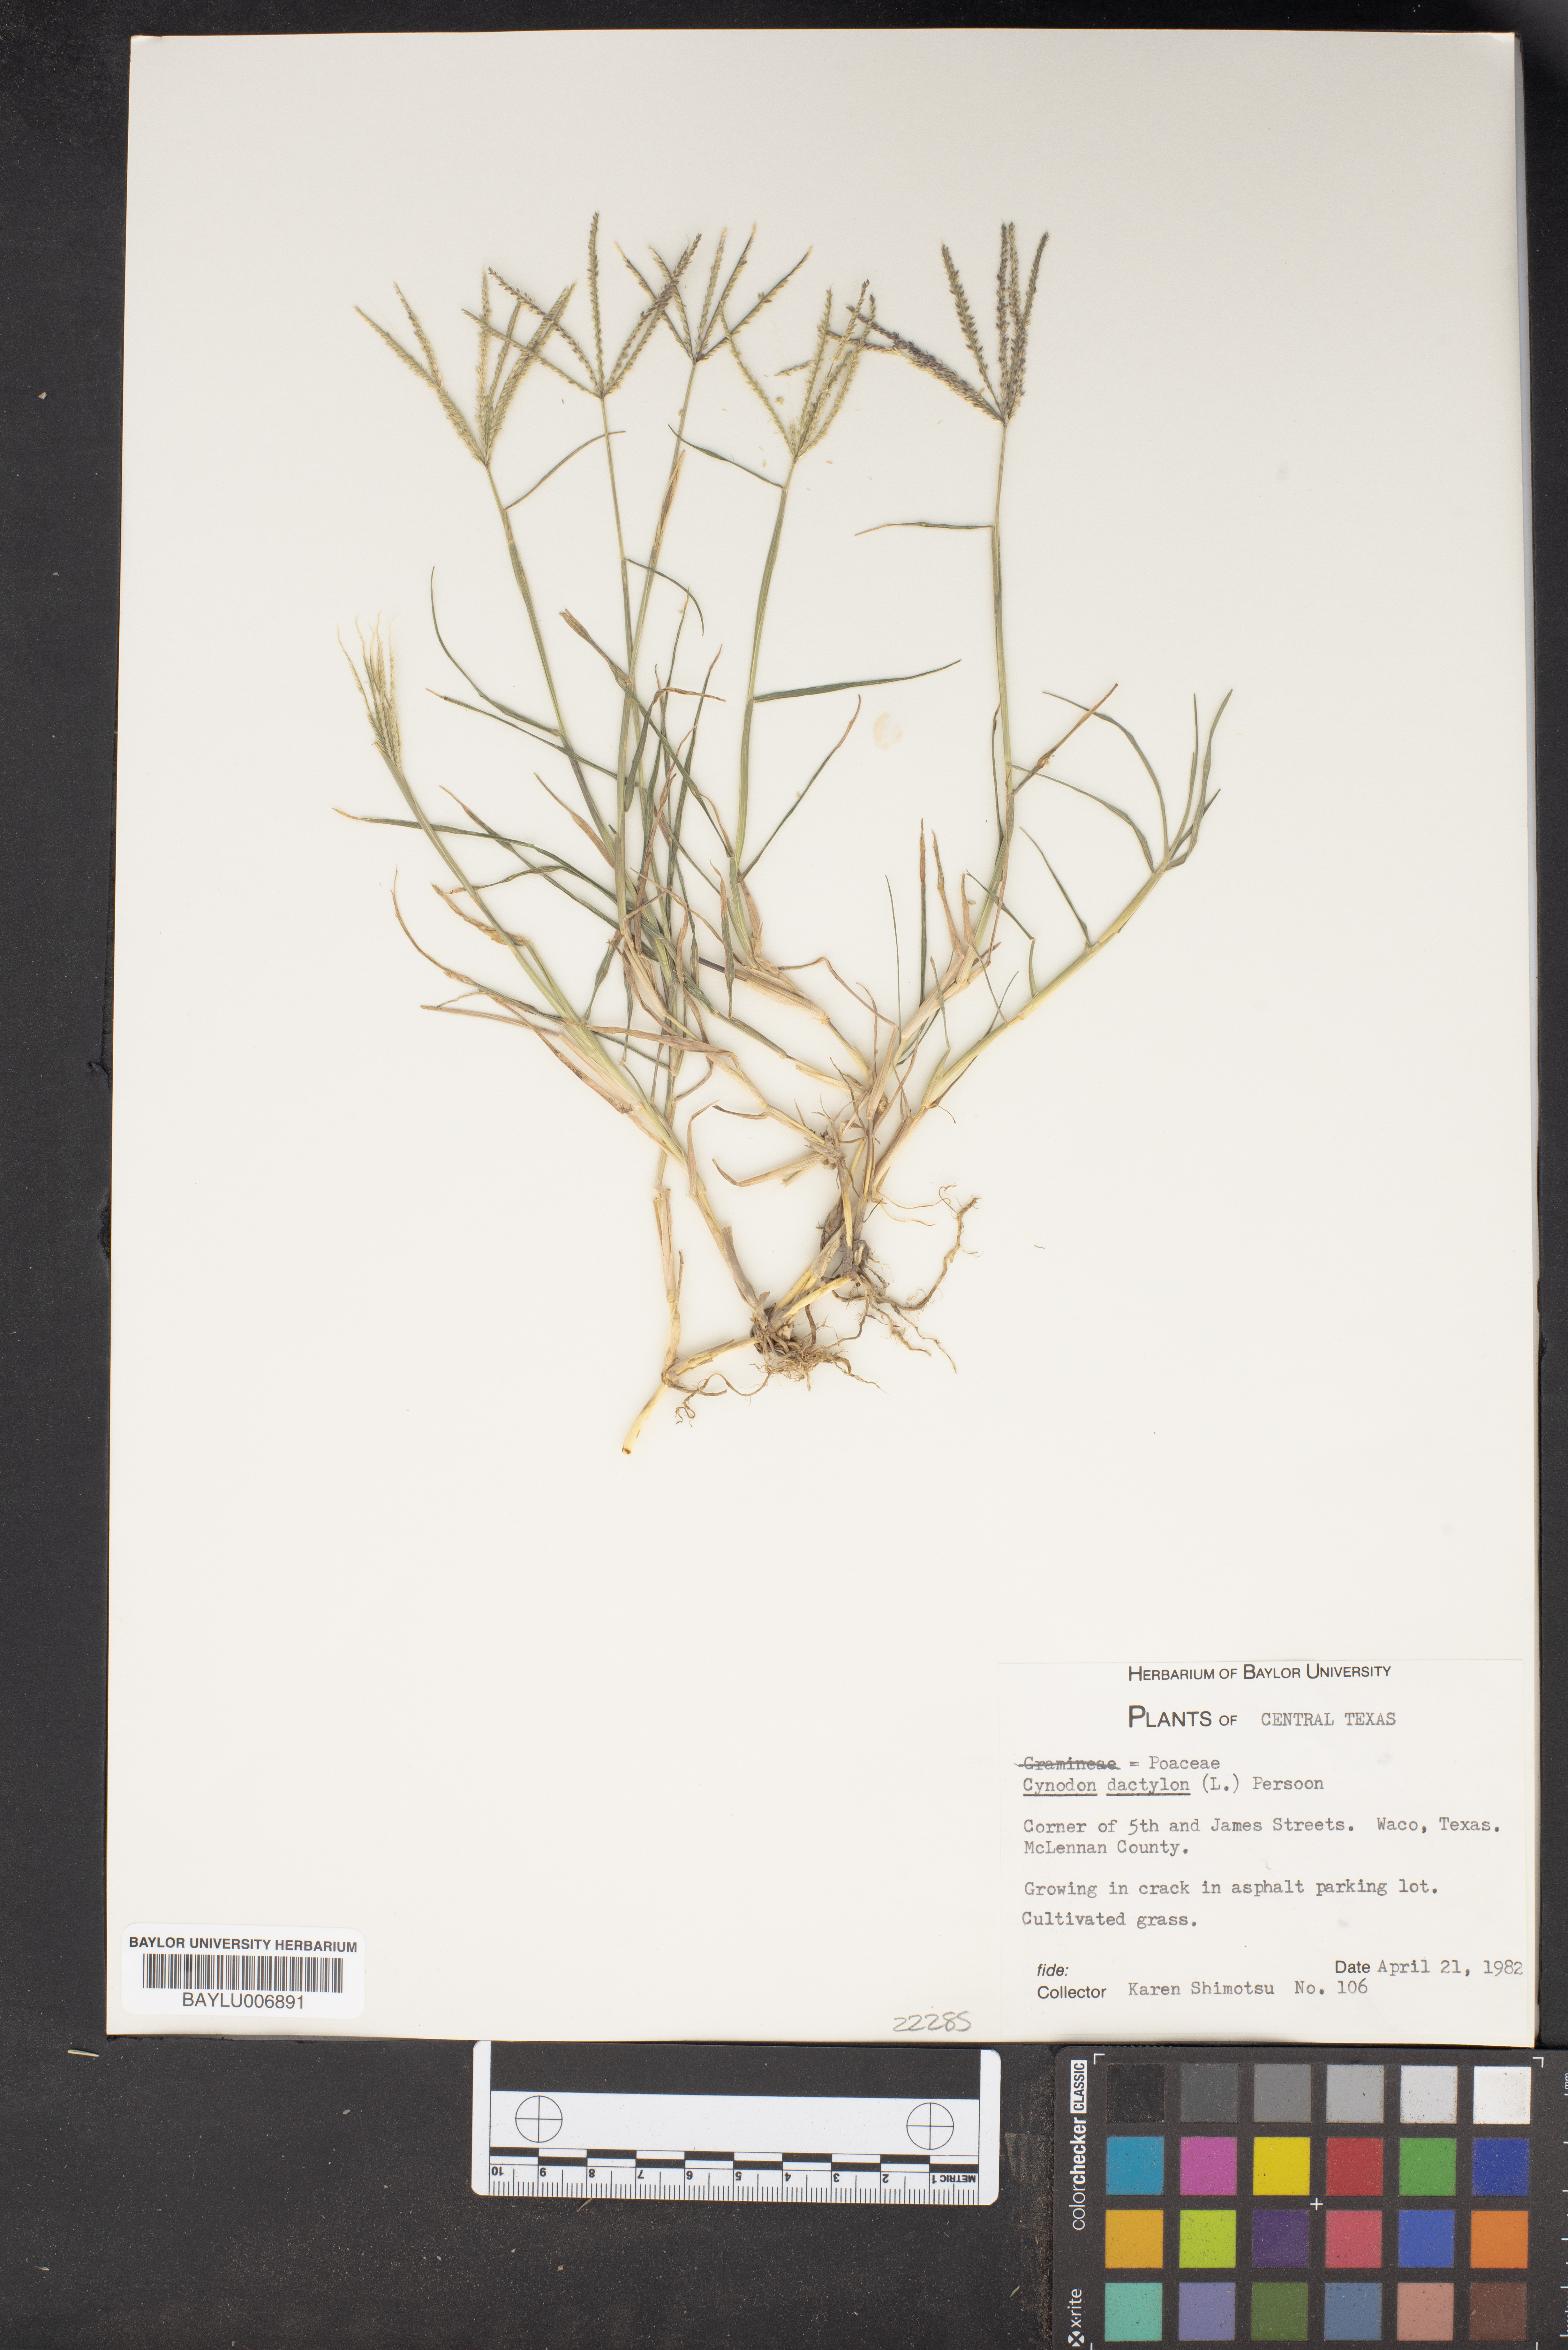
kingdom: Plantae
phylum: Tracheophyta
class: Liliopsida
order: Poales
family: Poaceae
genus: Cynodon
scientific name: Cynodon dactylon
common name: Bermuda grass
